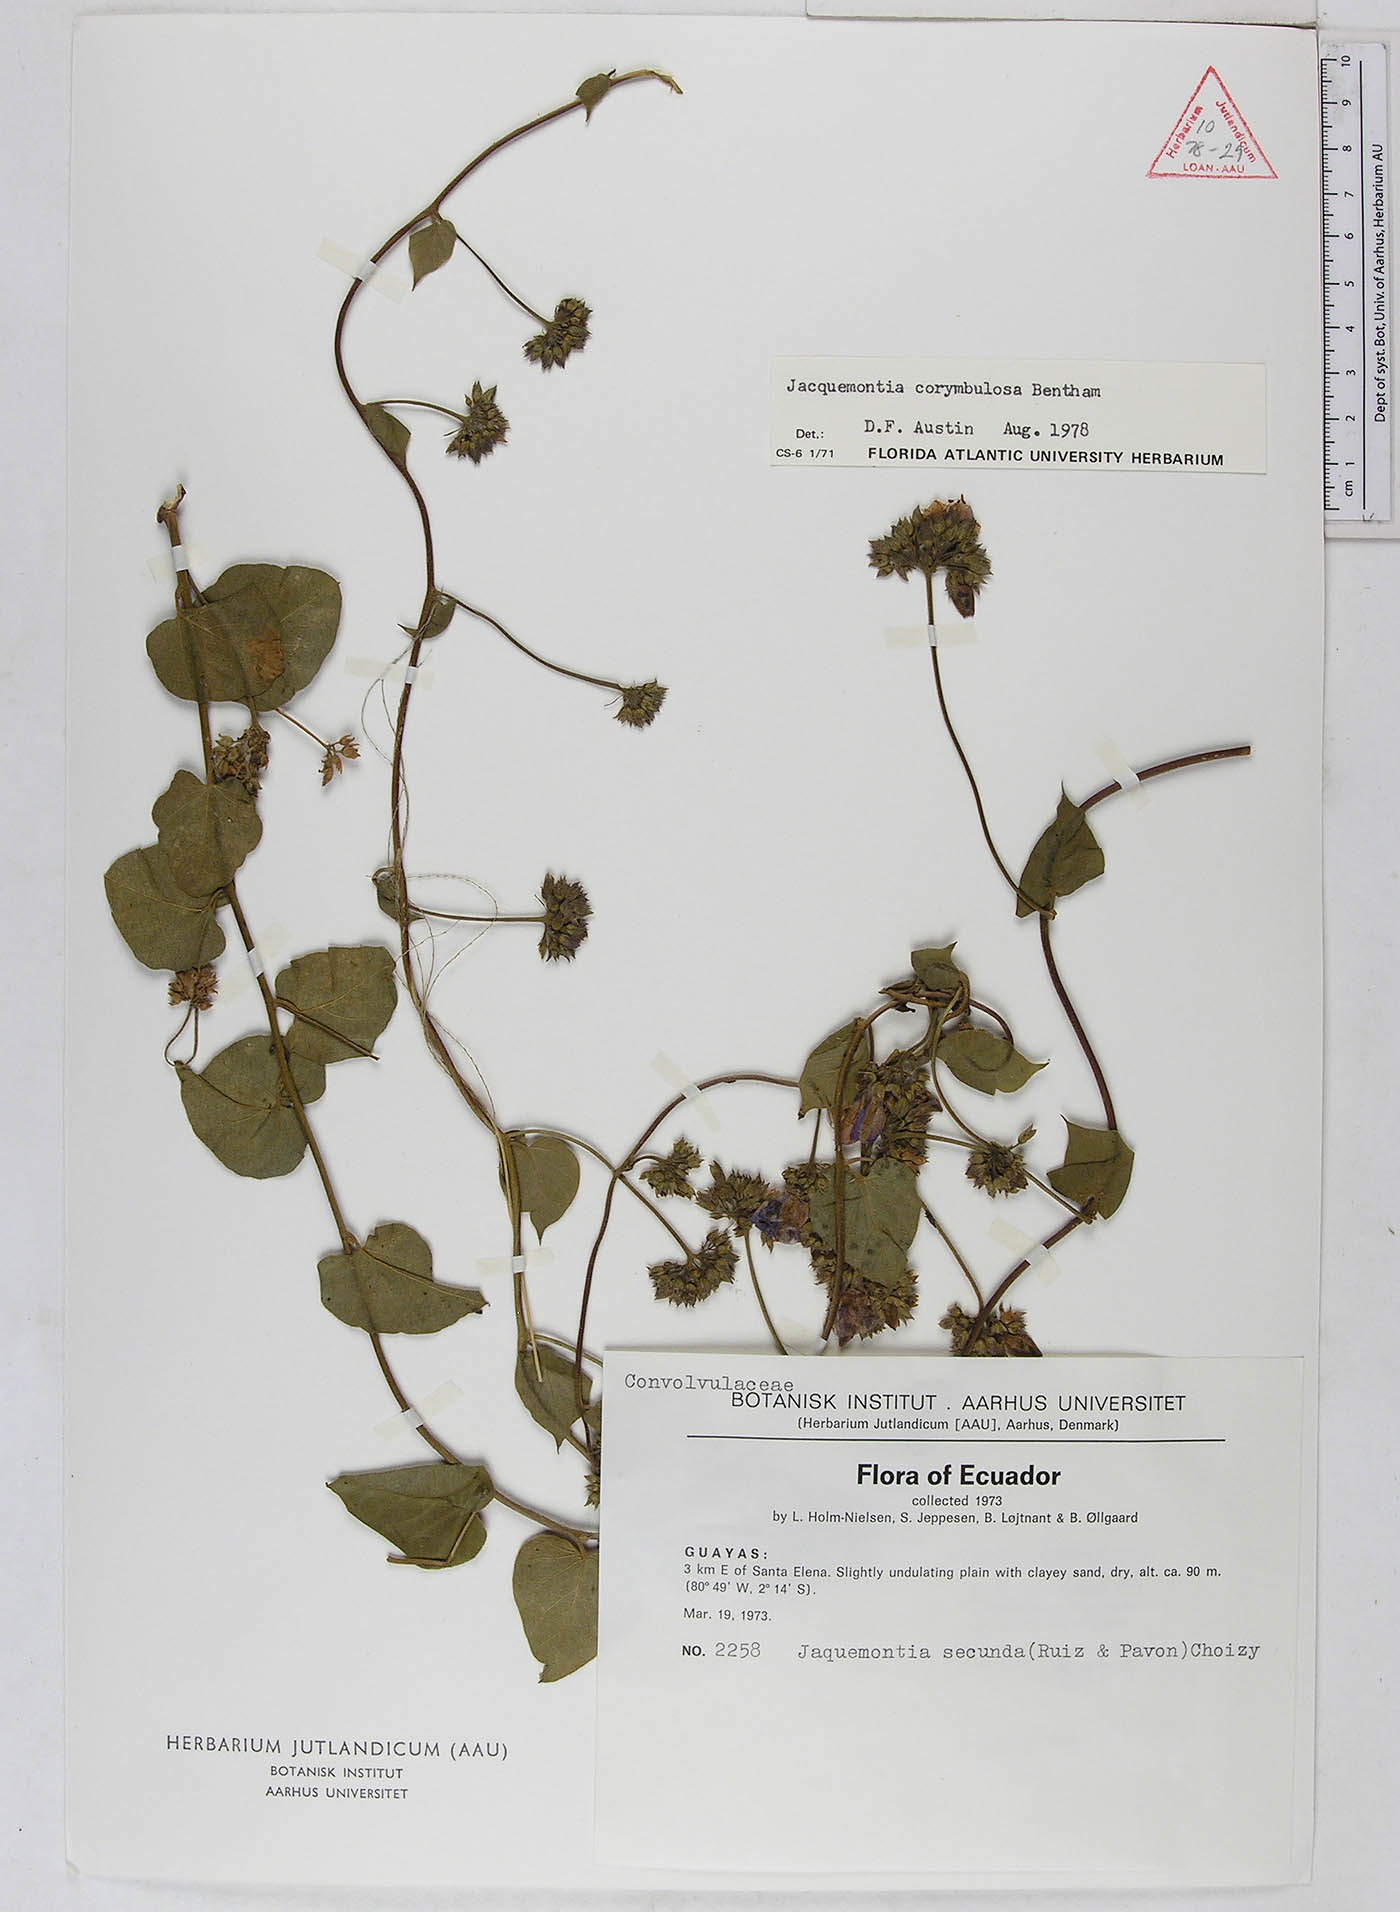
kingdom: Plantae
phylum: Tracheophyta
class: Magnoliopsida
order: Solanales
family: Convolvulaceae
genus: Jacquemontia
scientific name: Jacquemontia corymbulosa
